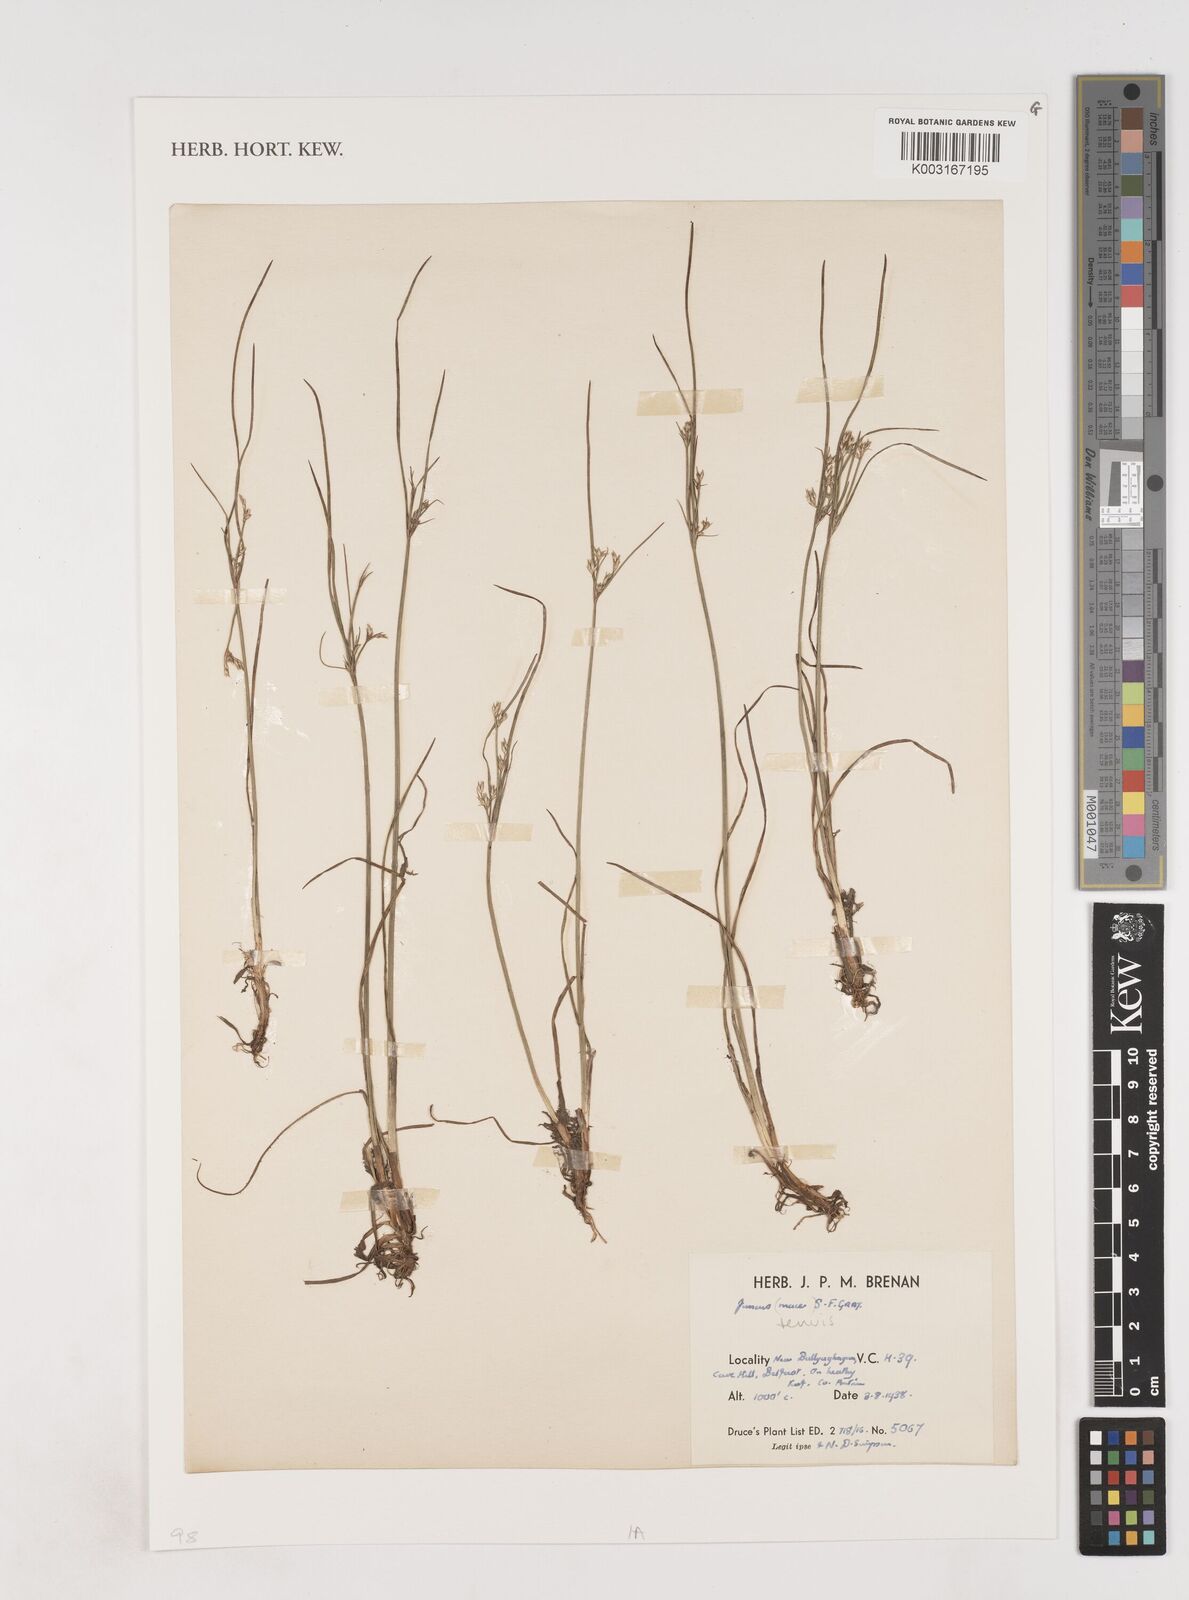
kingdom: Plantae
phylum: Tracheophyta
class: Liliopsida
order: Poales
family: Juncaceae
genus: Juncus
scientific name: Juncus tenuis
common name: Slender rush
